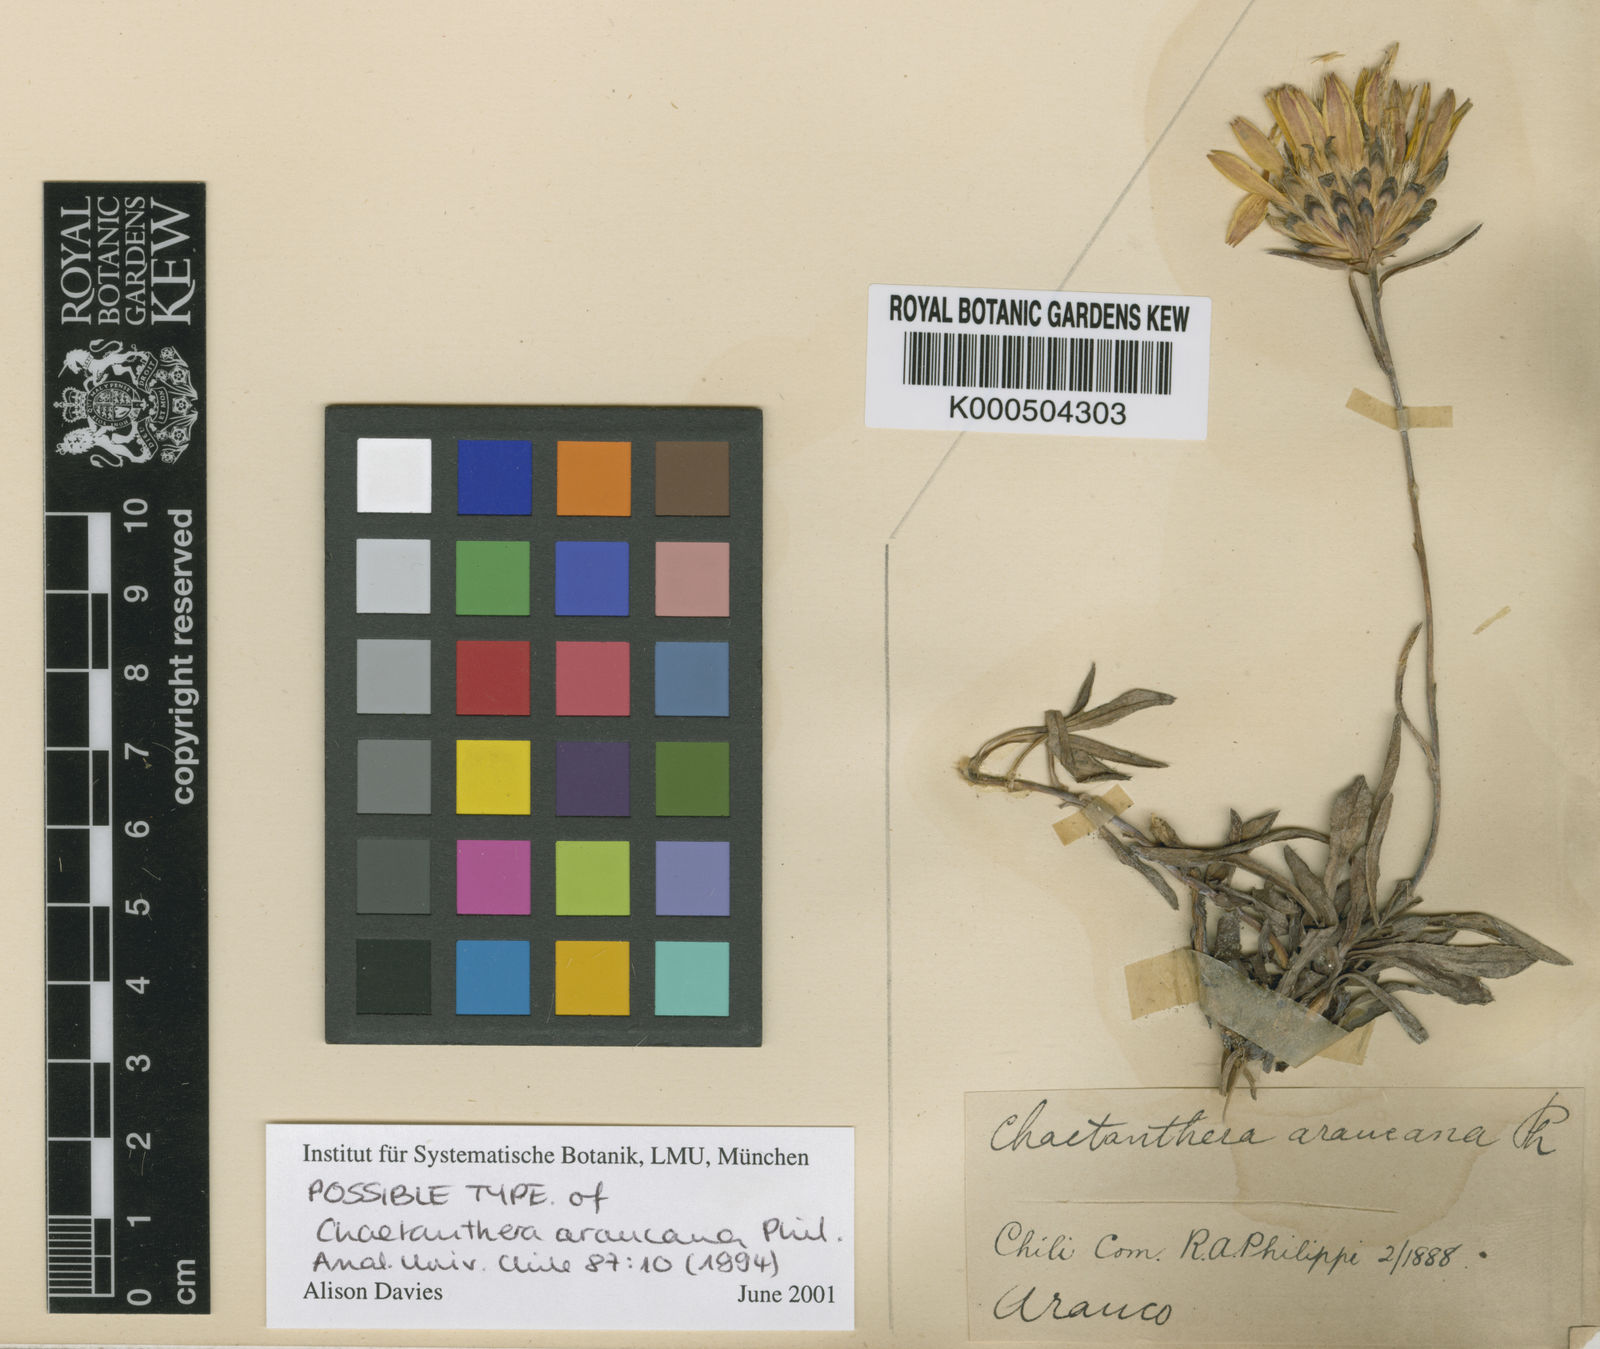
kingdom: Plantae
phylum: Tracheophyta
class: Magnoliopsida
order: Asterales
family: Asteraceae
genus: Chaetanthera
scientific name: Chaetanthera elegans
